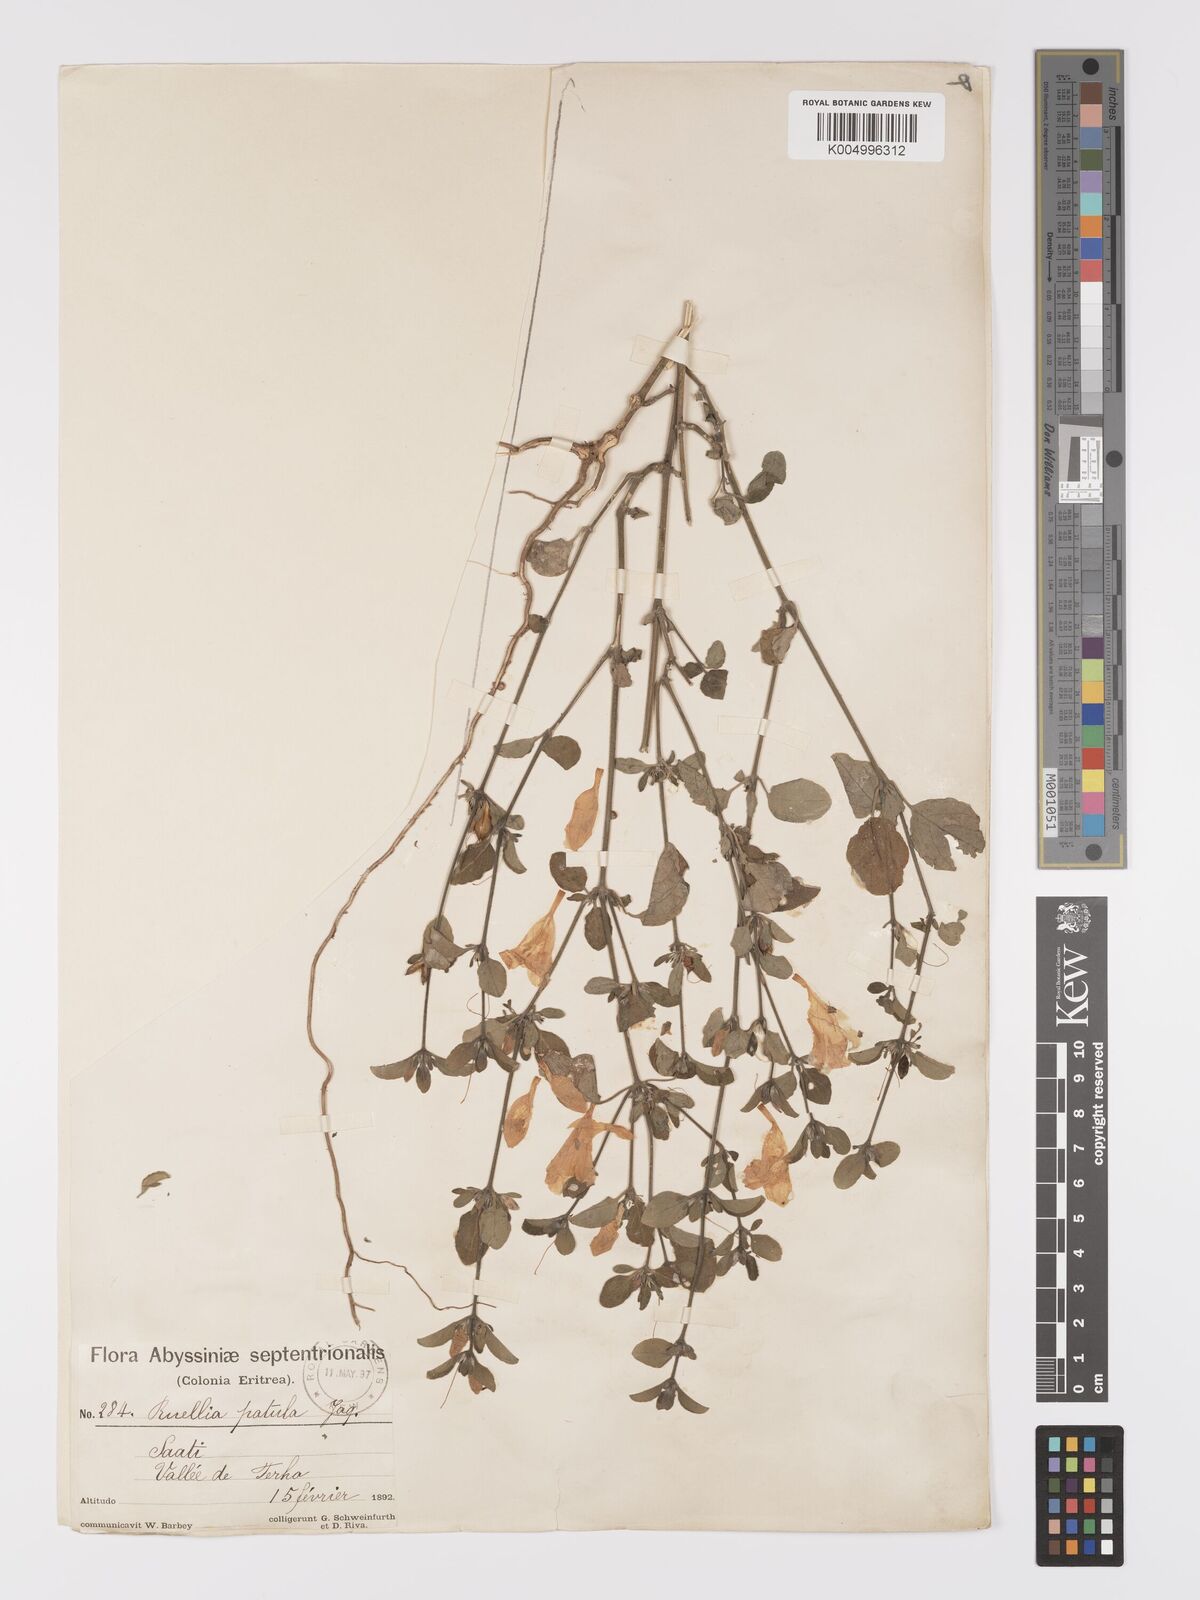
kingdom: Plantae
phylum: Tracheophyta
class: Magnoliopsida
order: Lamiales
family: Acanthaceae
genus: Ruellia
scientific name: Ruellia patula
